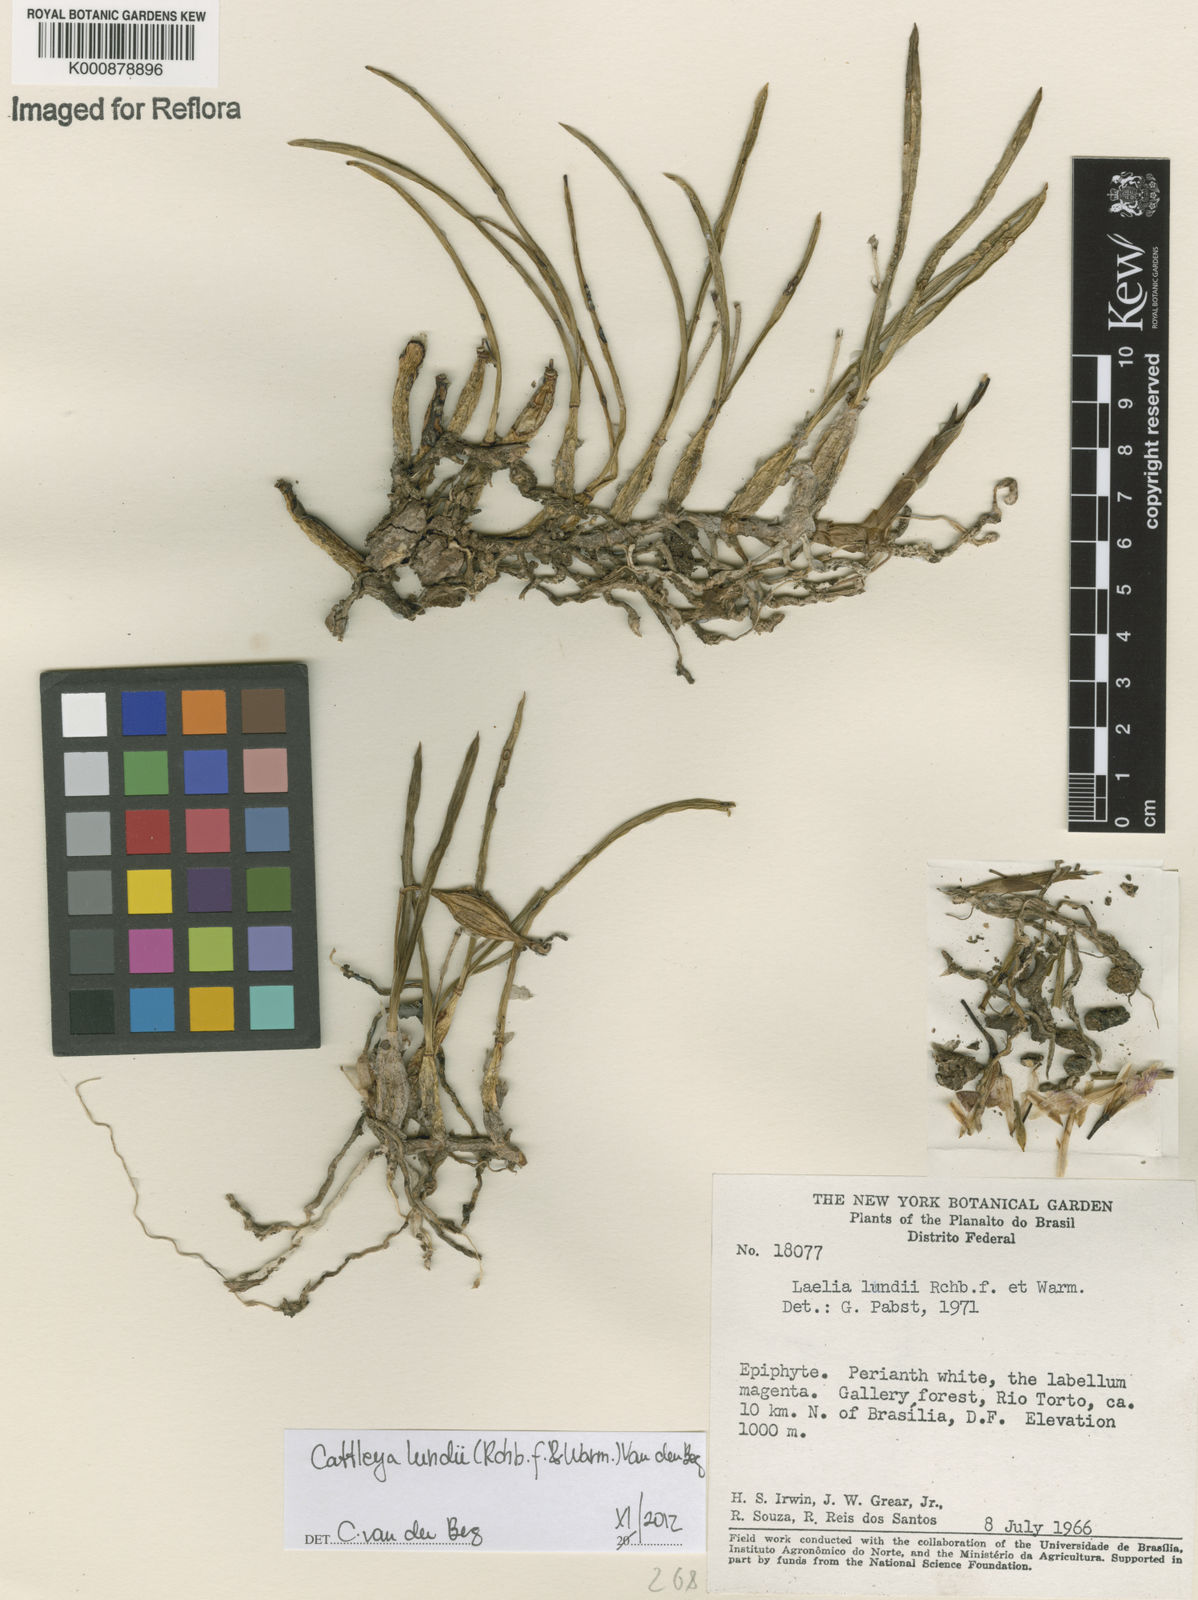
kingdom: Plantae
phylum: Tracheophyta
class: Liliopsida
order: Asparagales
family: Orchidaceae
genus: Cattleya
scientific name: Cattleya lundii
